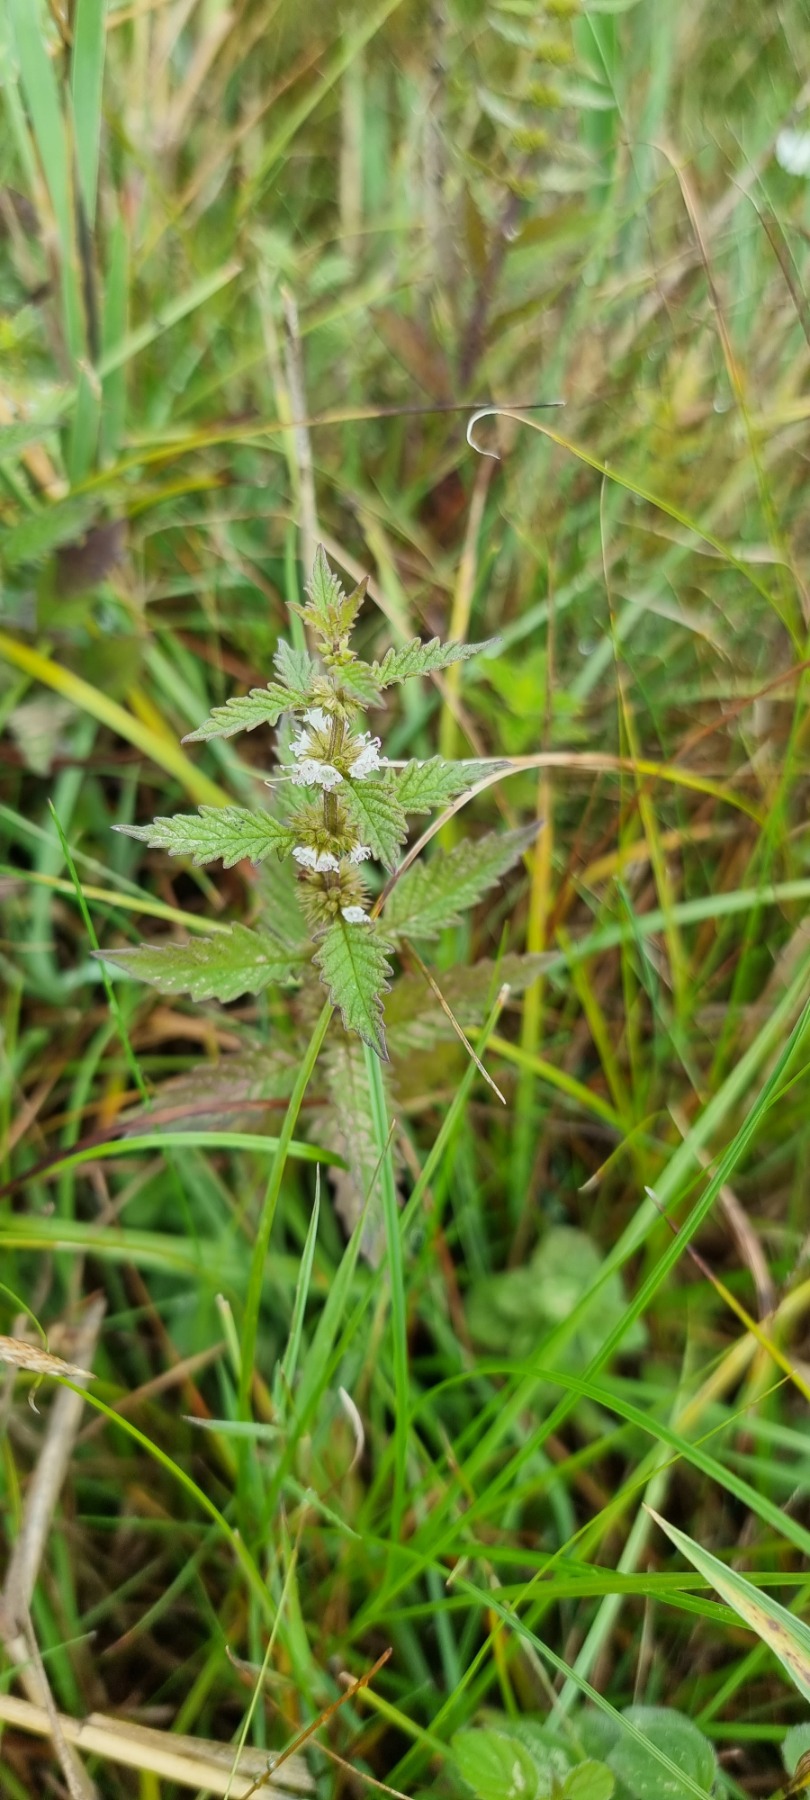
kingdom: Plantae
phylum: Tracheophyta
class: Magnoliopsida
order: Lamiales
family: Lamiaceae
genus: Lycopus
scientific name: Lycopus europaeus
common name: Sværtevæld
